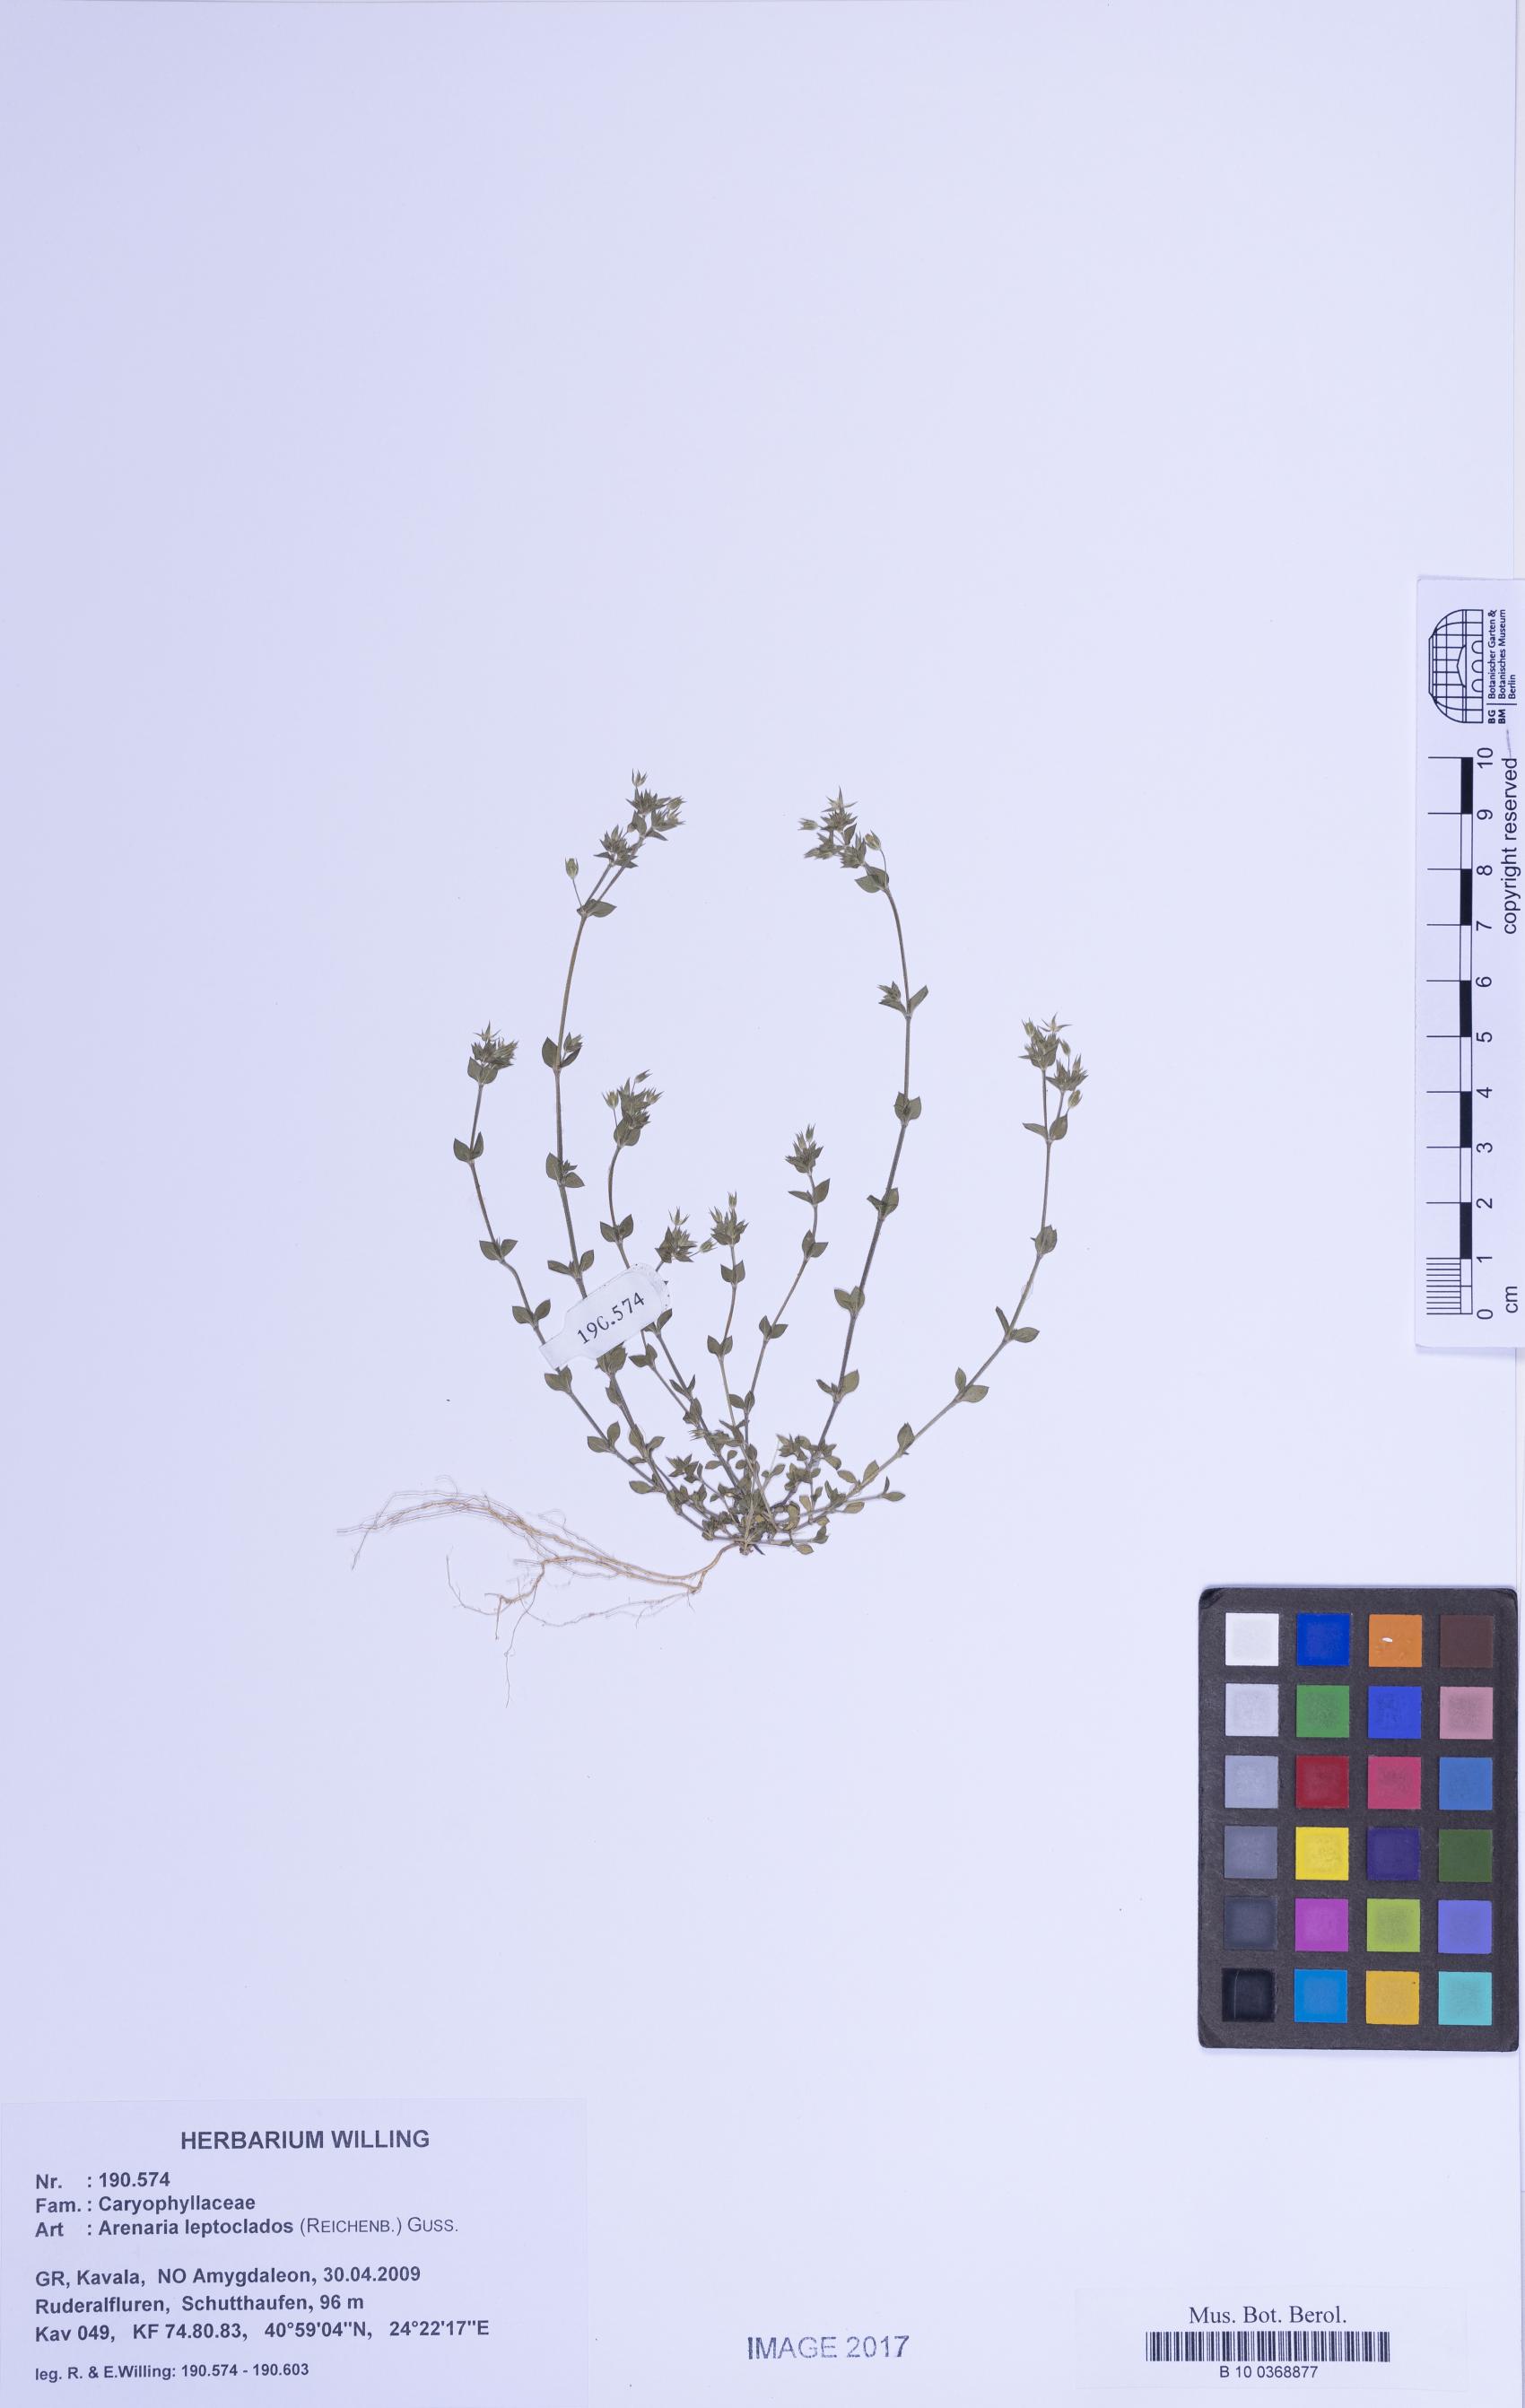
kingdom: Plantae
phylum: Tracheophyta
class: Magnoliopsida
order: Caryophyllales
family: Caryophyllaceae
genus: Arenaria
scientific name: Arenaria leptoclados
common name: Thyme-leaved sandwort
